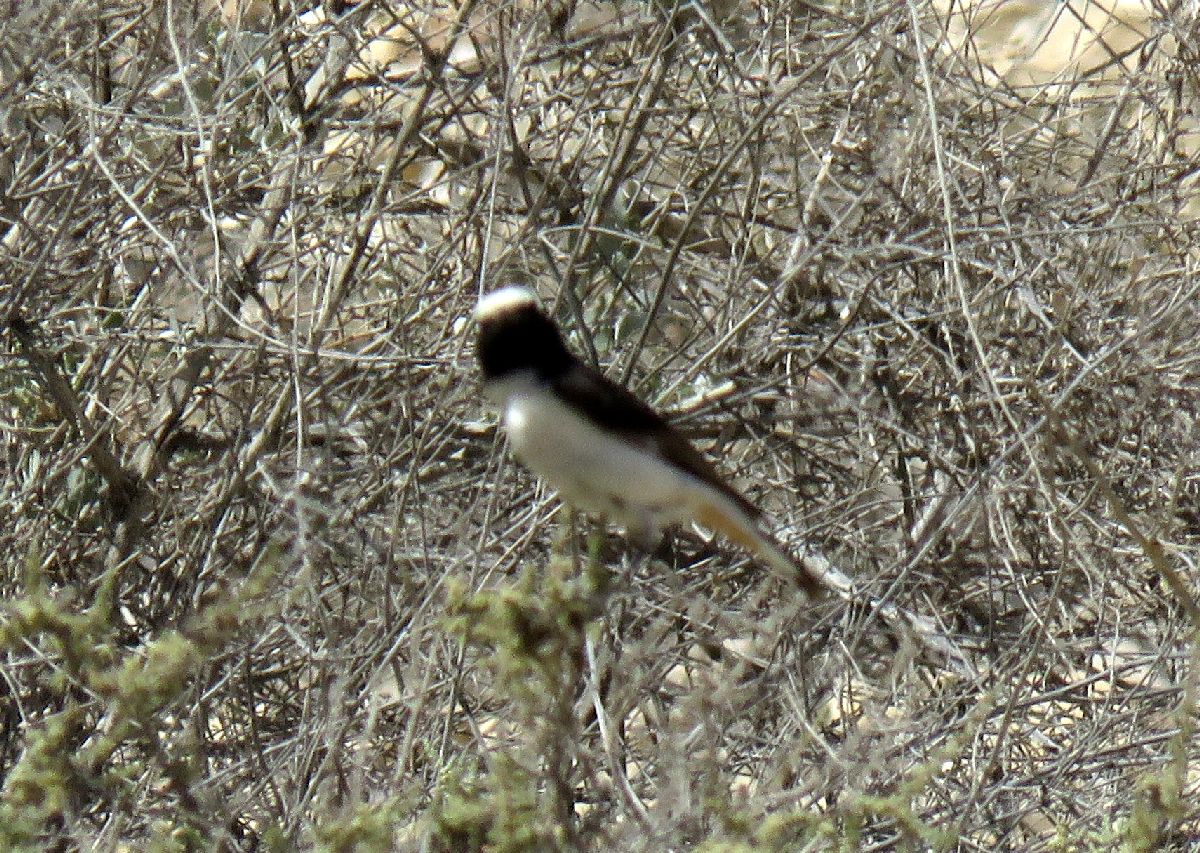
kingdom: Animalia
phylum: Chordata
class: Aves
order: Passeriformes
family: Muscicapidae
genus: Oenanthe
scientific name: Oenanthe lugens
